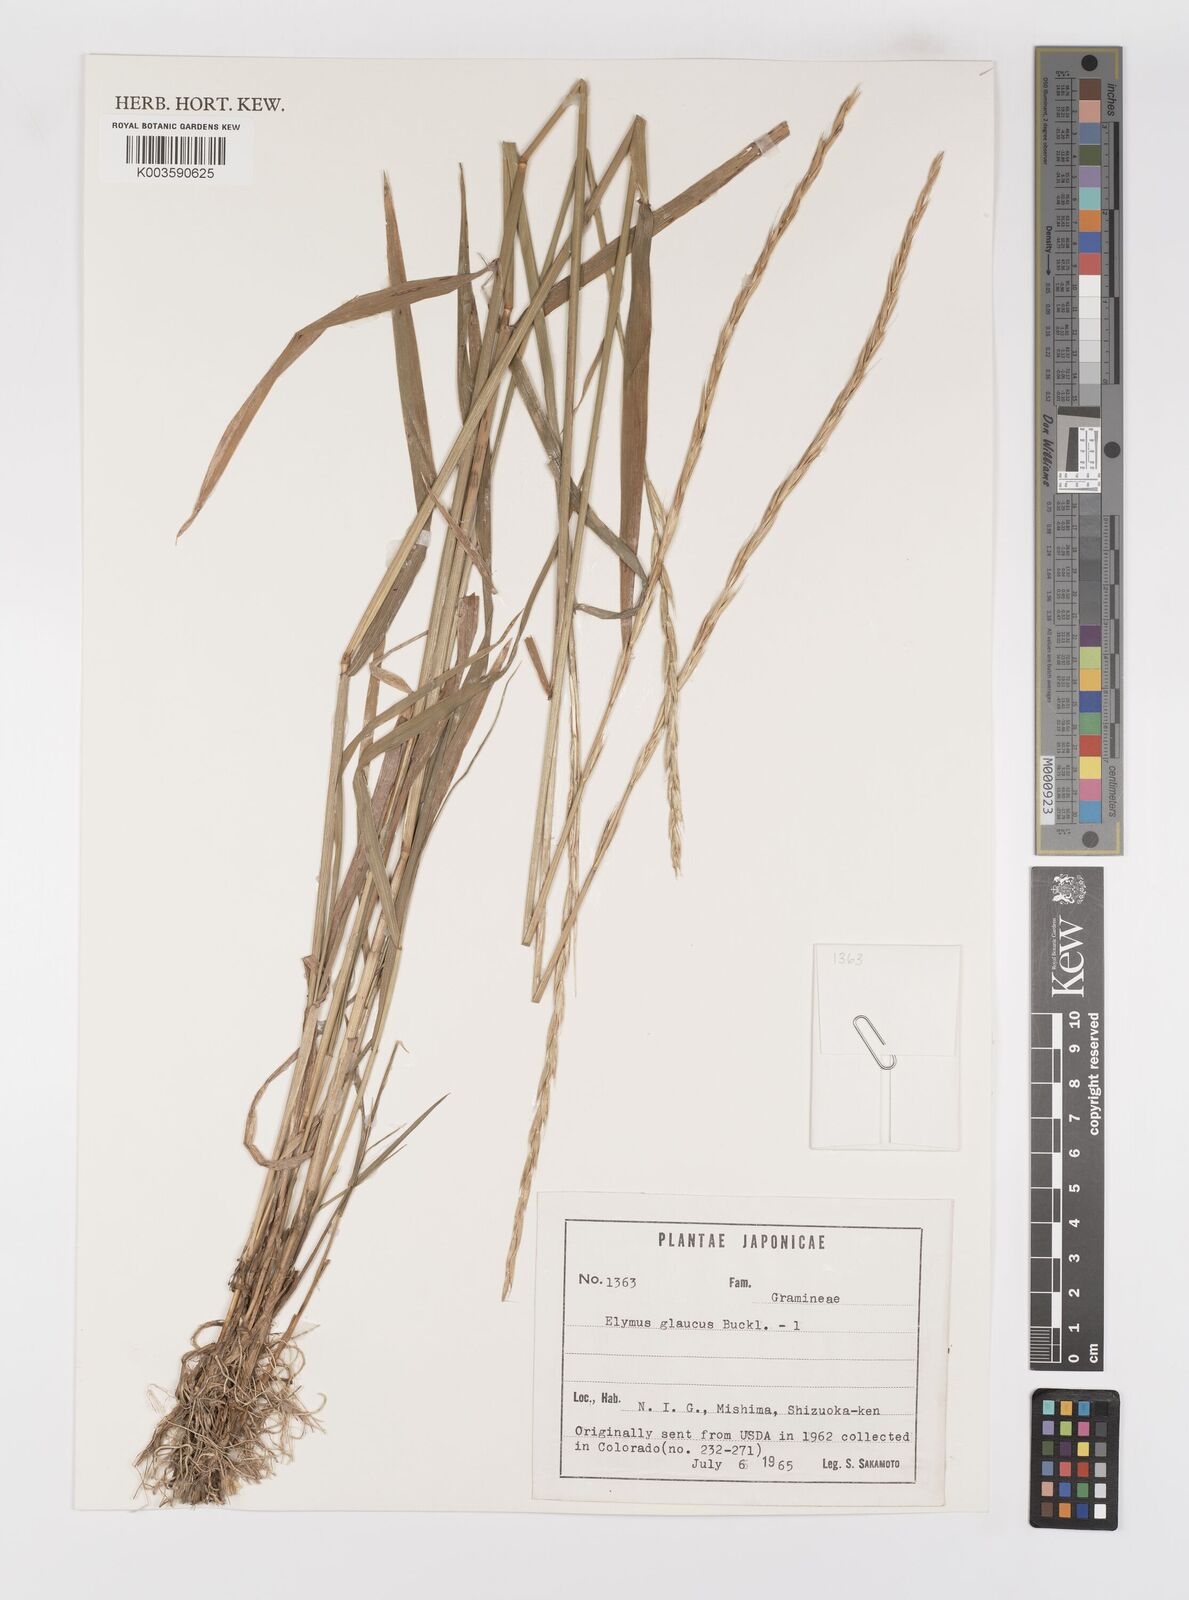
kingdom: Plantae
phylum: Tracheophyta
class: Liliopsida
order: Poales
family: Poaceae
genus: Elymus
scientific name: Elymus glaucus
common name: Blue wild rye
